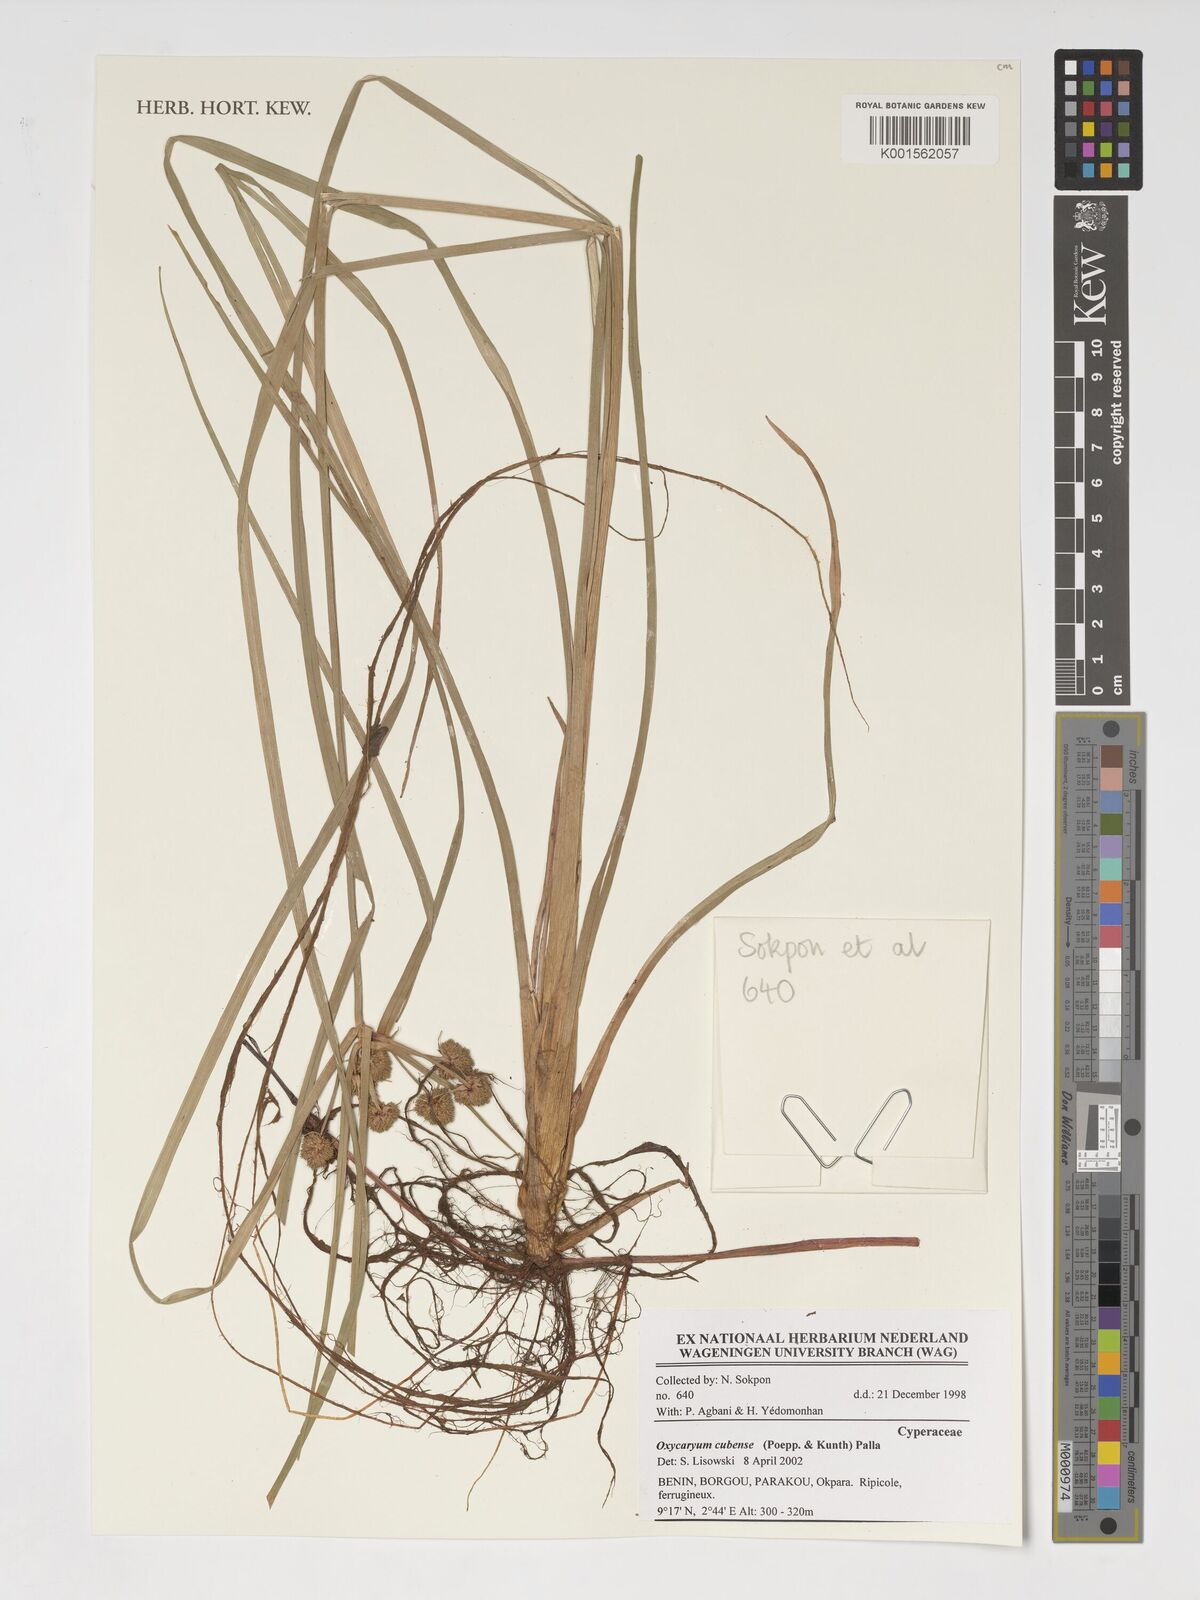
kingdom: Plantae
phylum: Tracheophyta
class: Liliopsida
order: Poales
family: Cyperaceae
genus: Cyperus
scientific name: Cyperus blepharoleptos
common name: Cuban bulrush
